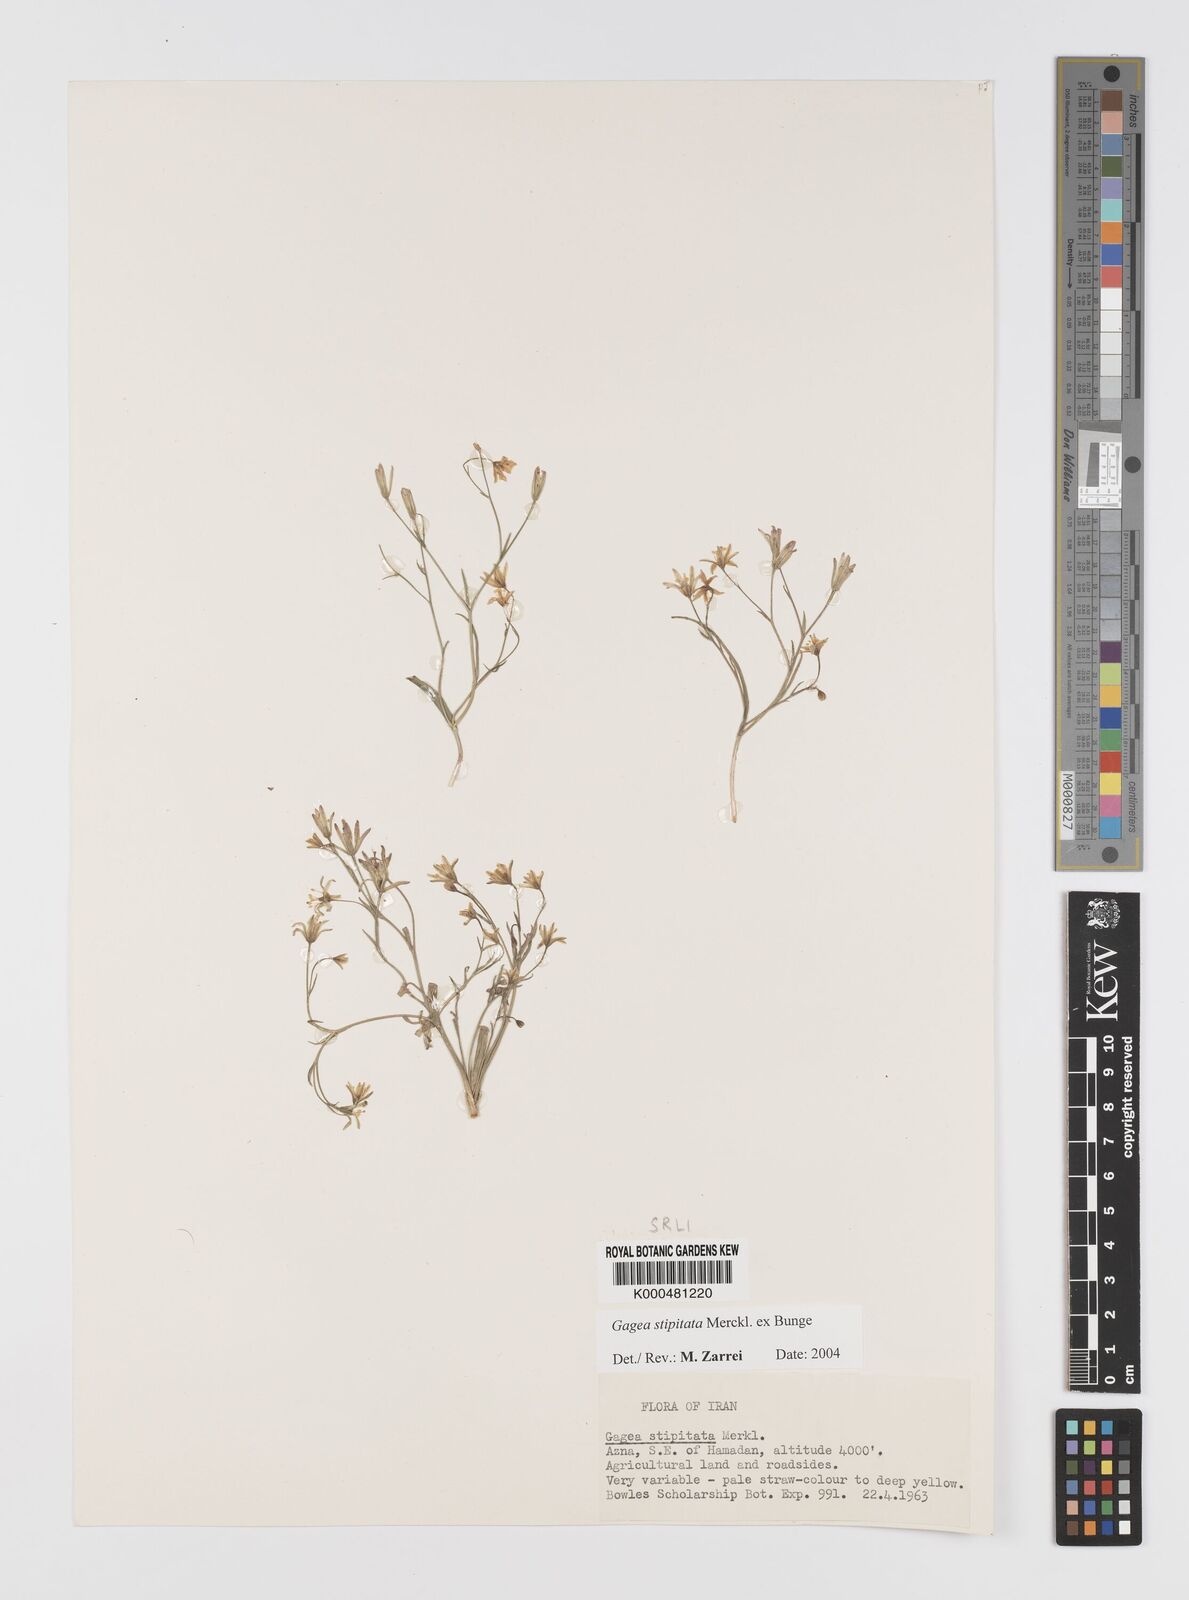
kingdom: Plantae
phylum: Tracheophyta
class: Liliopsida
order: Liliales
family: Liliaceae
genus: Gagea
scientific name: Gagea kunawurensis
